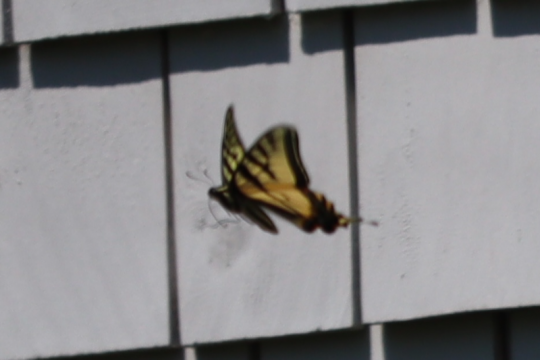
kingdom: Animalia
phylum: Arthropoda
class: Insecta
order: Lepidoptera
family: Papilionidae
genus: Pterourus
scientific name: Pterourus canadensis
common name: Canadian Tiger Swallowtail
